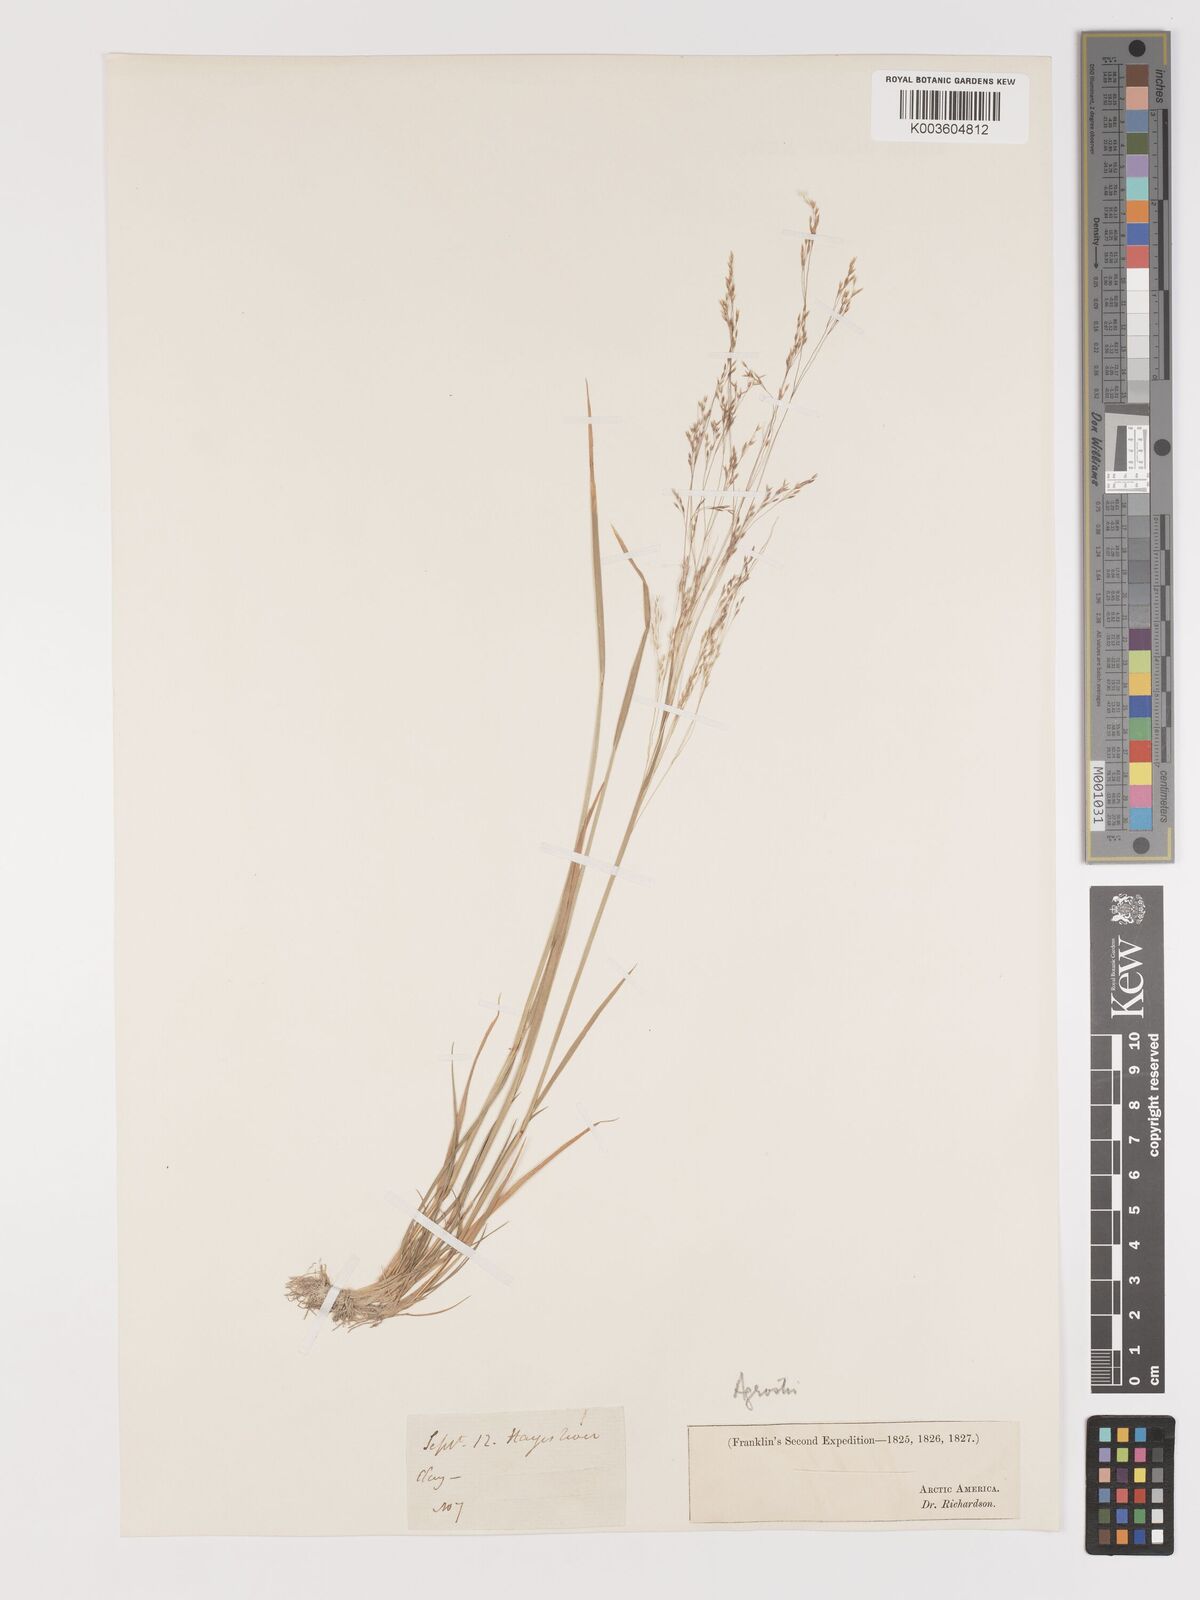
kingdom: Plantae
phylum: Tracheophyta
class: Liliopsida
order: Poales
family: Poaceae
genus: Agrostis
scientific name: Agrostis
